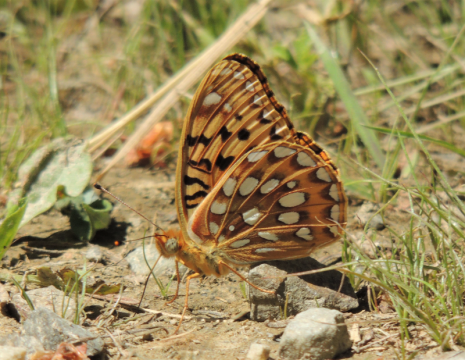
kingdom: Animalia
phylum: Arthropoda
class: Insecta
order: Lepidoptera
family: Nymphalidae
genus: Speyeria
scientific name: Speyeria egleis
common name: Great Basin Fritillary
